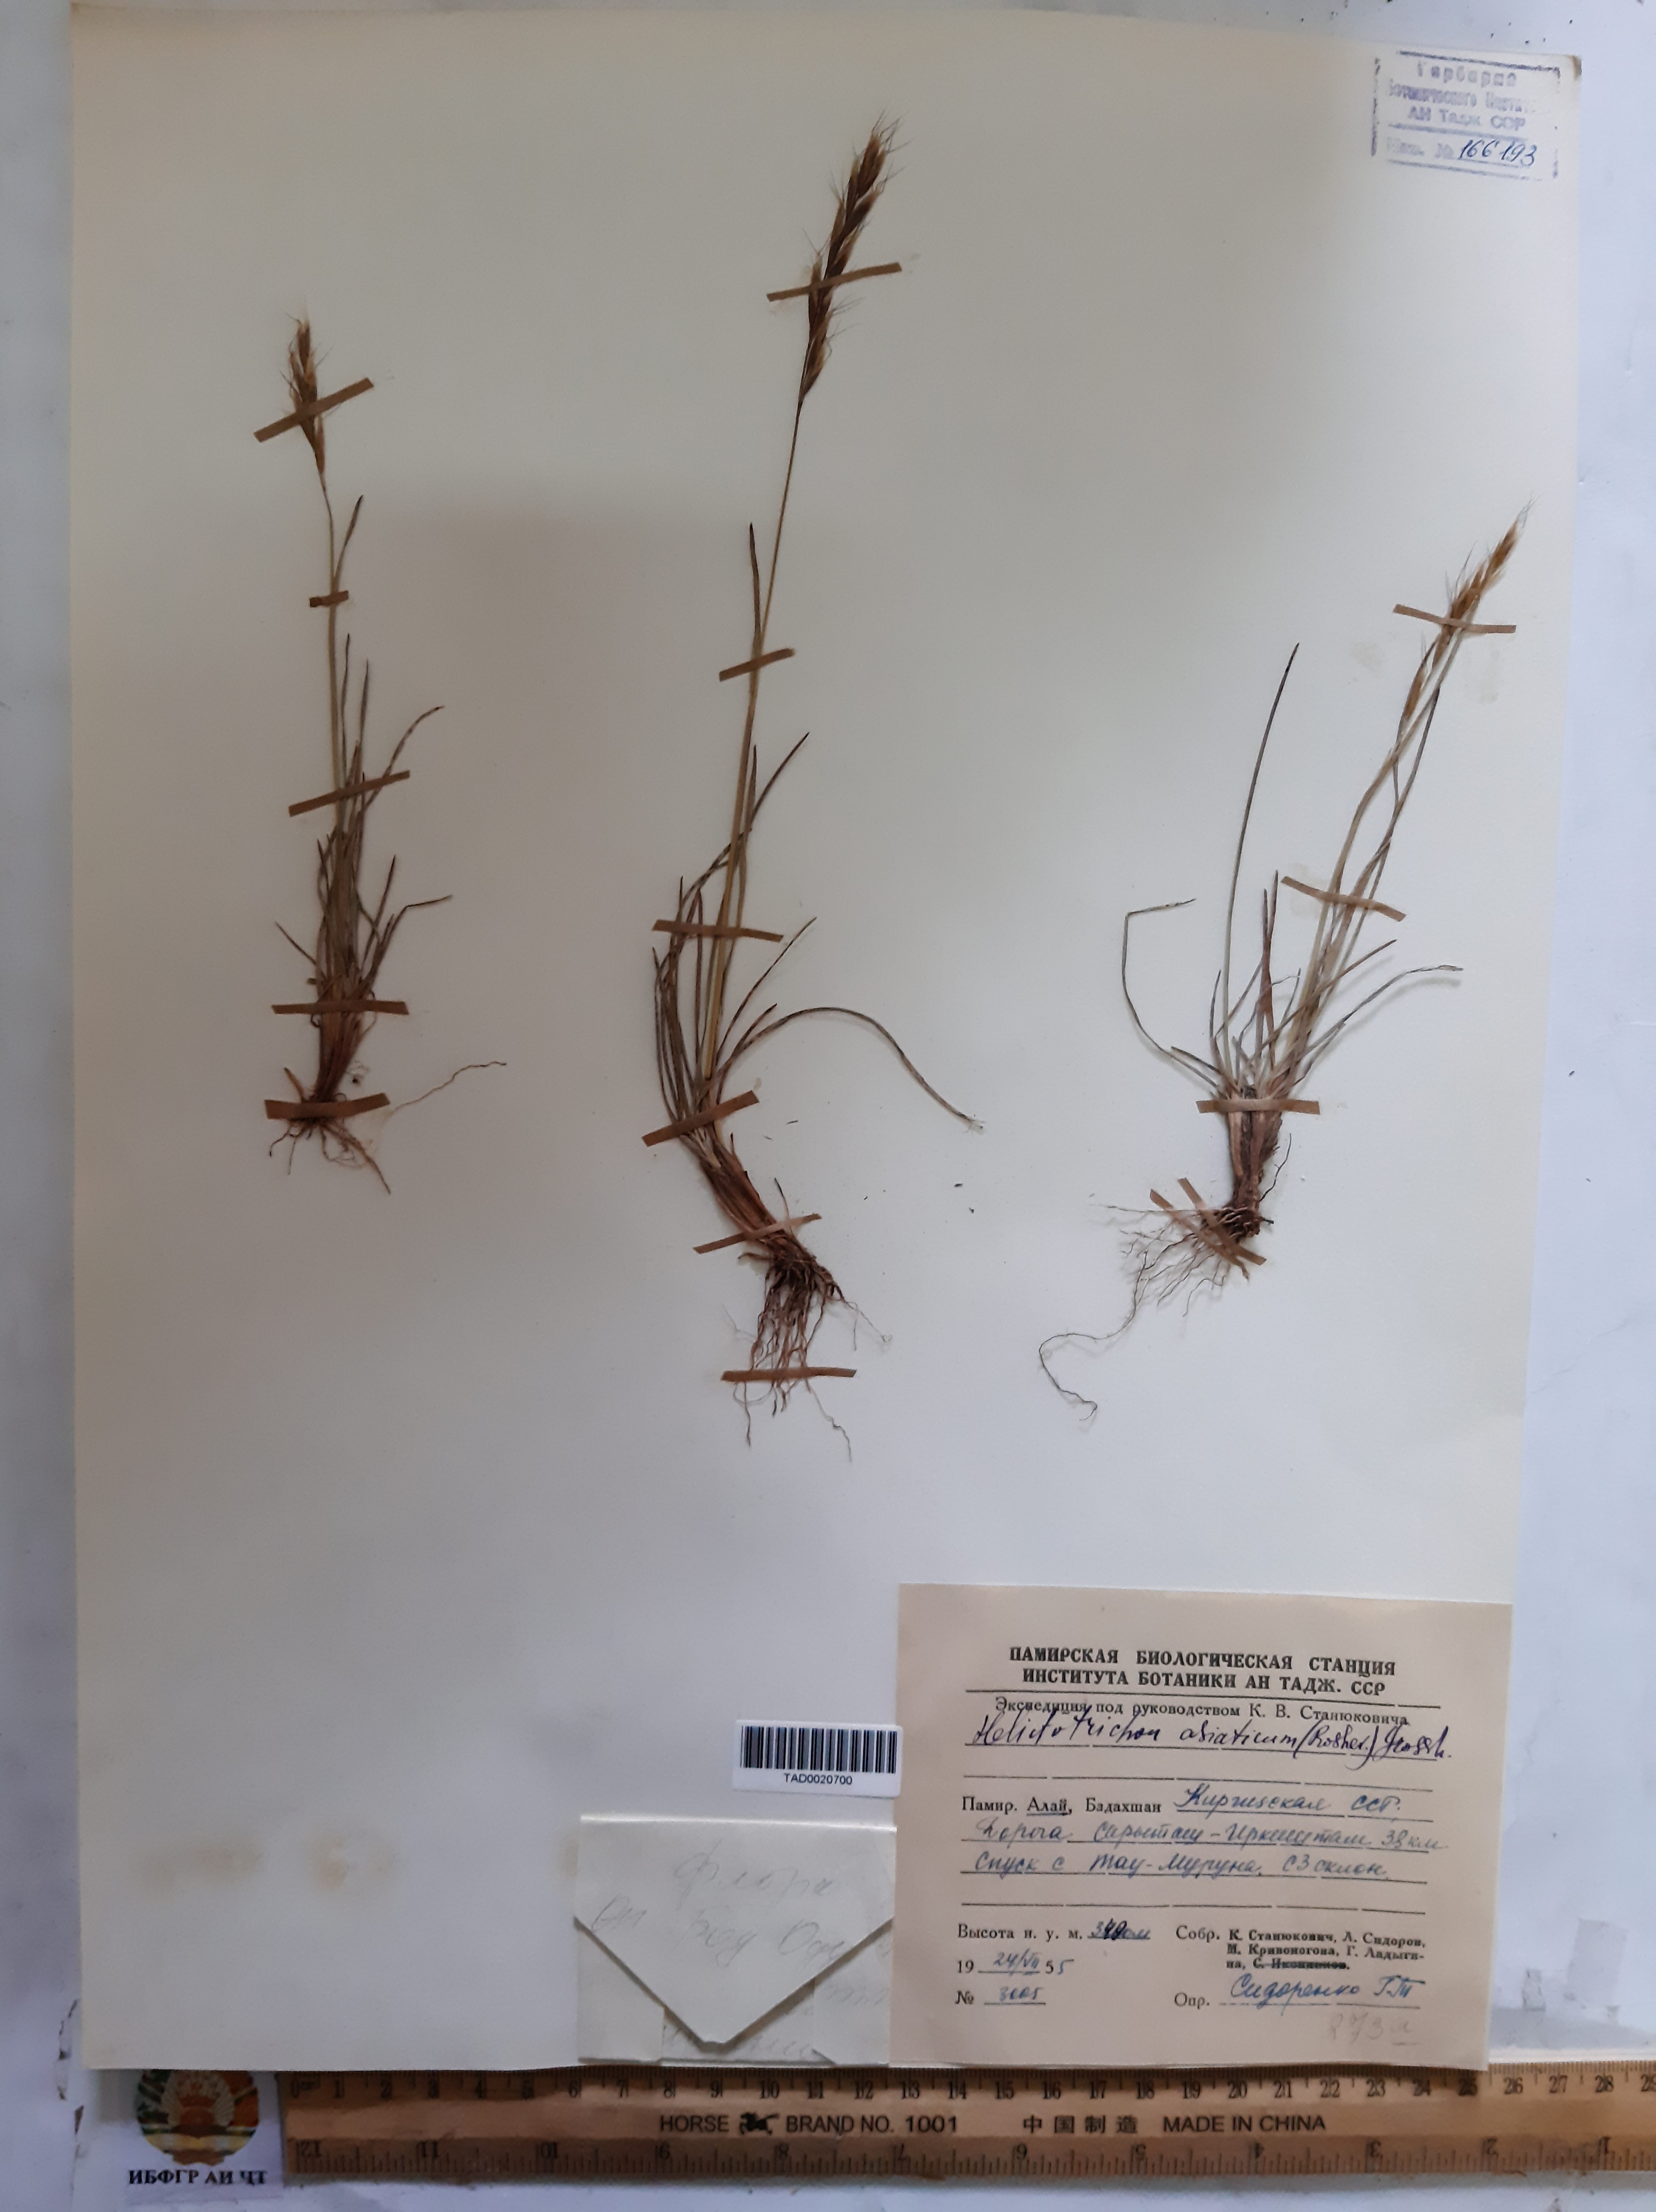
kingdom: Plantae
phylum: Tracheophyta
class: Liliopsida
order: Poales
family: Poaceae
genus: Helictochloa
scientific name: Helictochloa hookeri
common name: Hooker's alpine oatgrass
